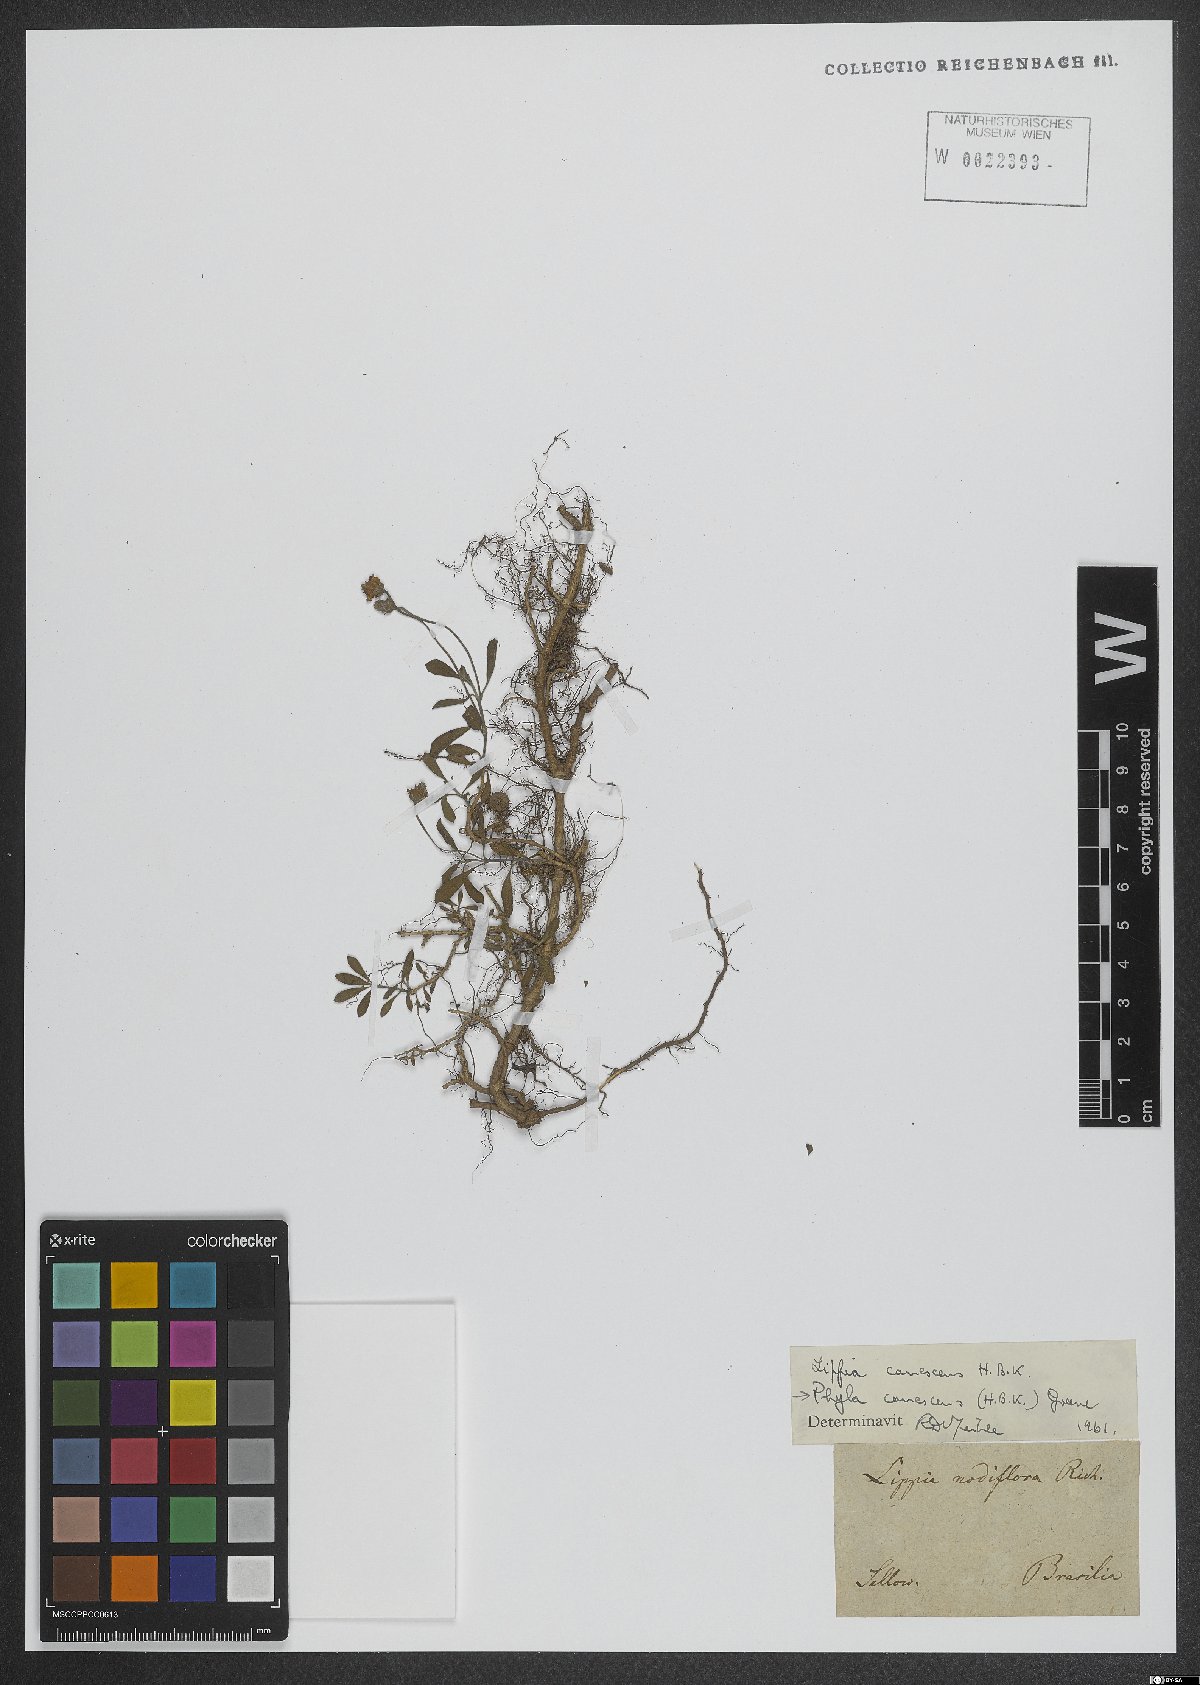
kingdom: Plantae
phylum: Tracheophyta
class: Magnoliopsida
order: Lamiales
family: Verbenaceae
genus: Phyla
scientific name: Phyla nodiflora
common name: Frogfruit
